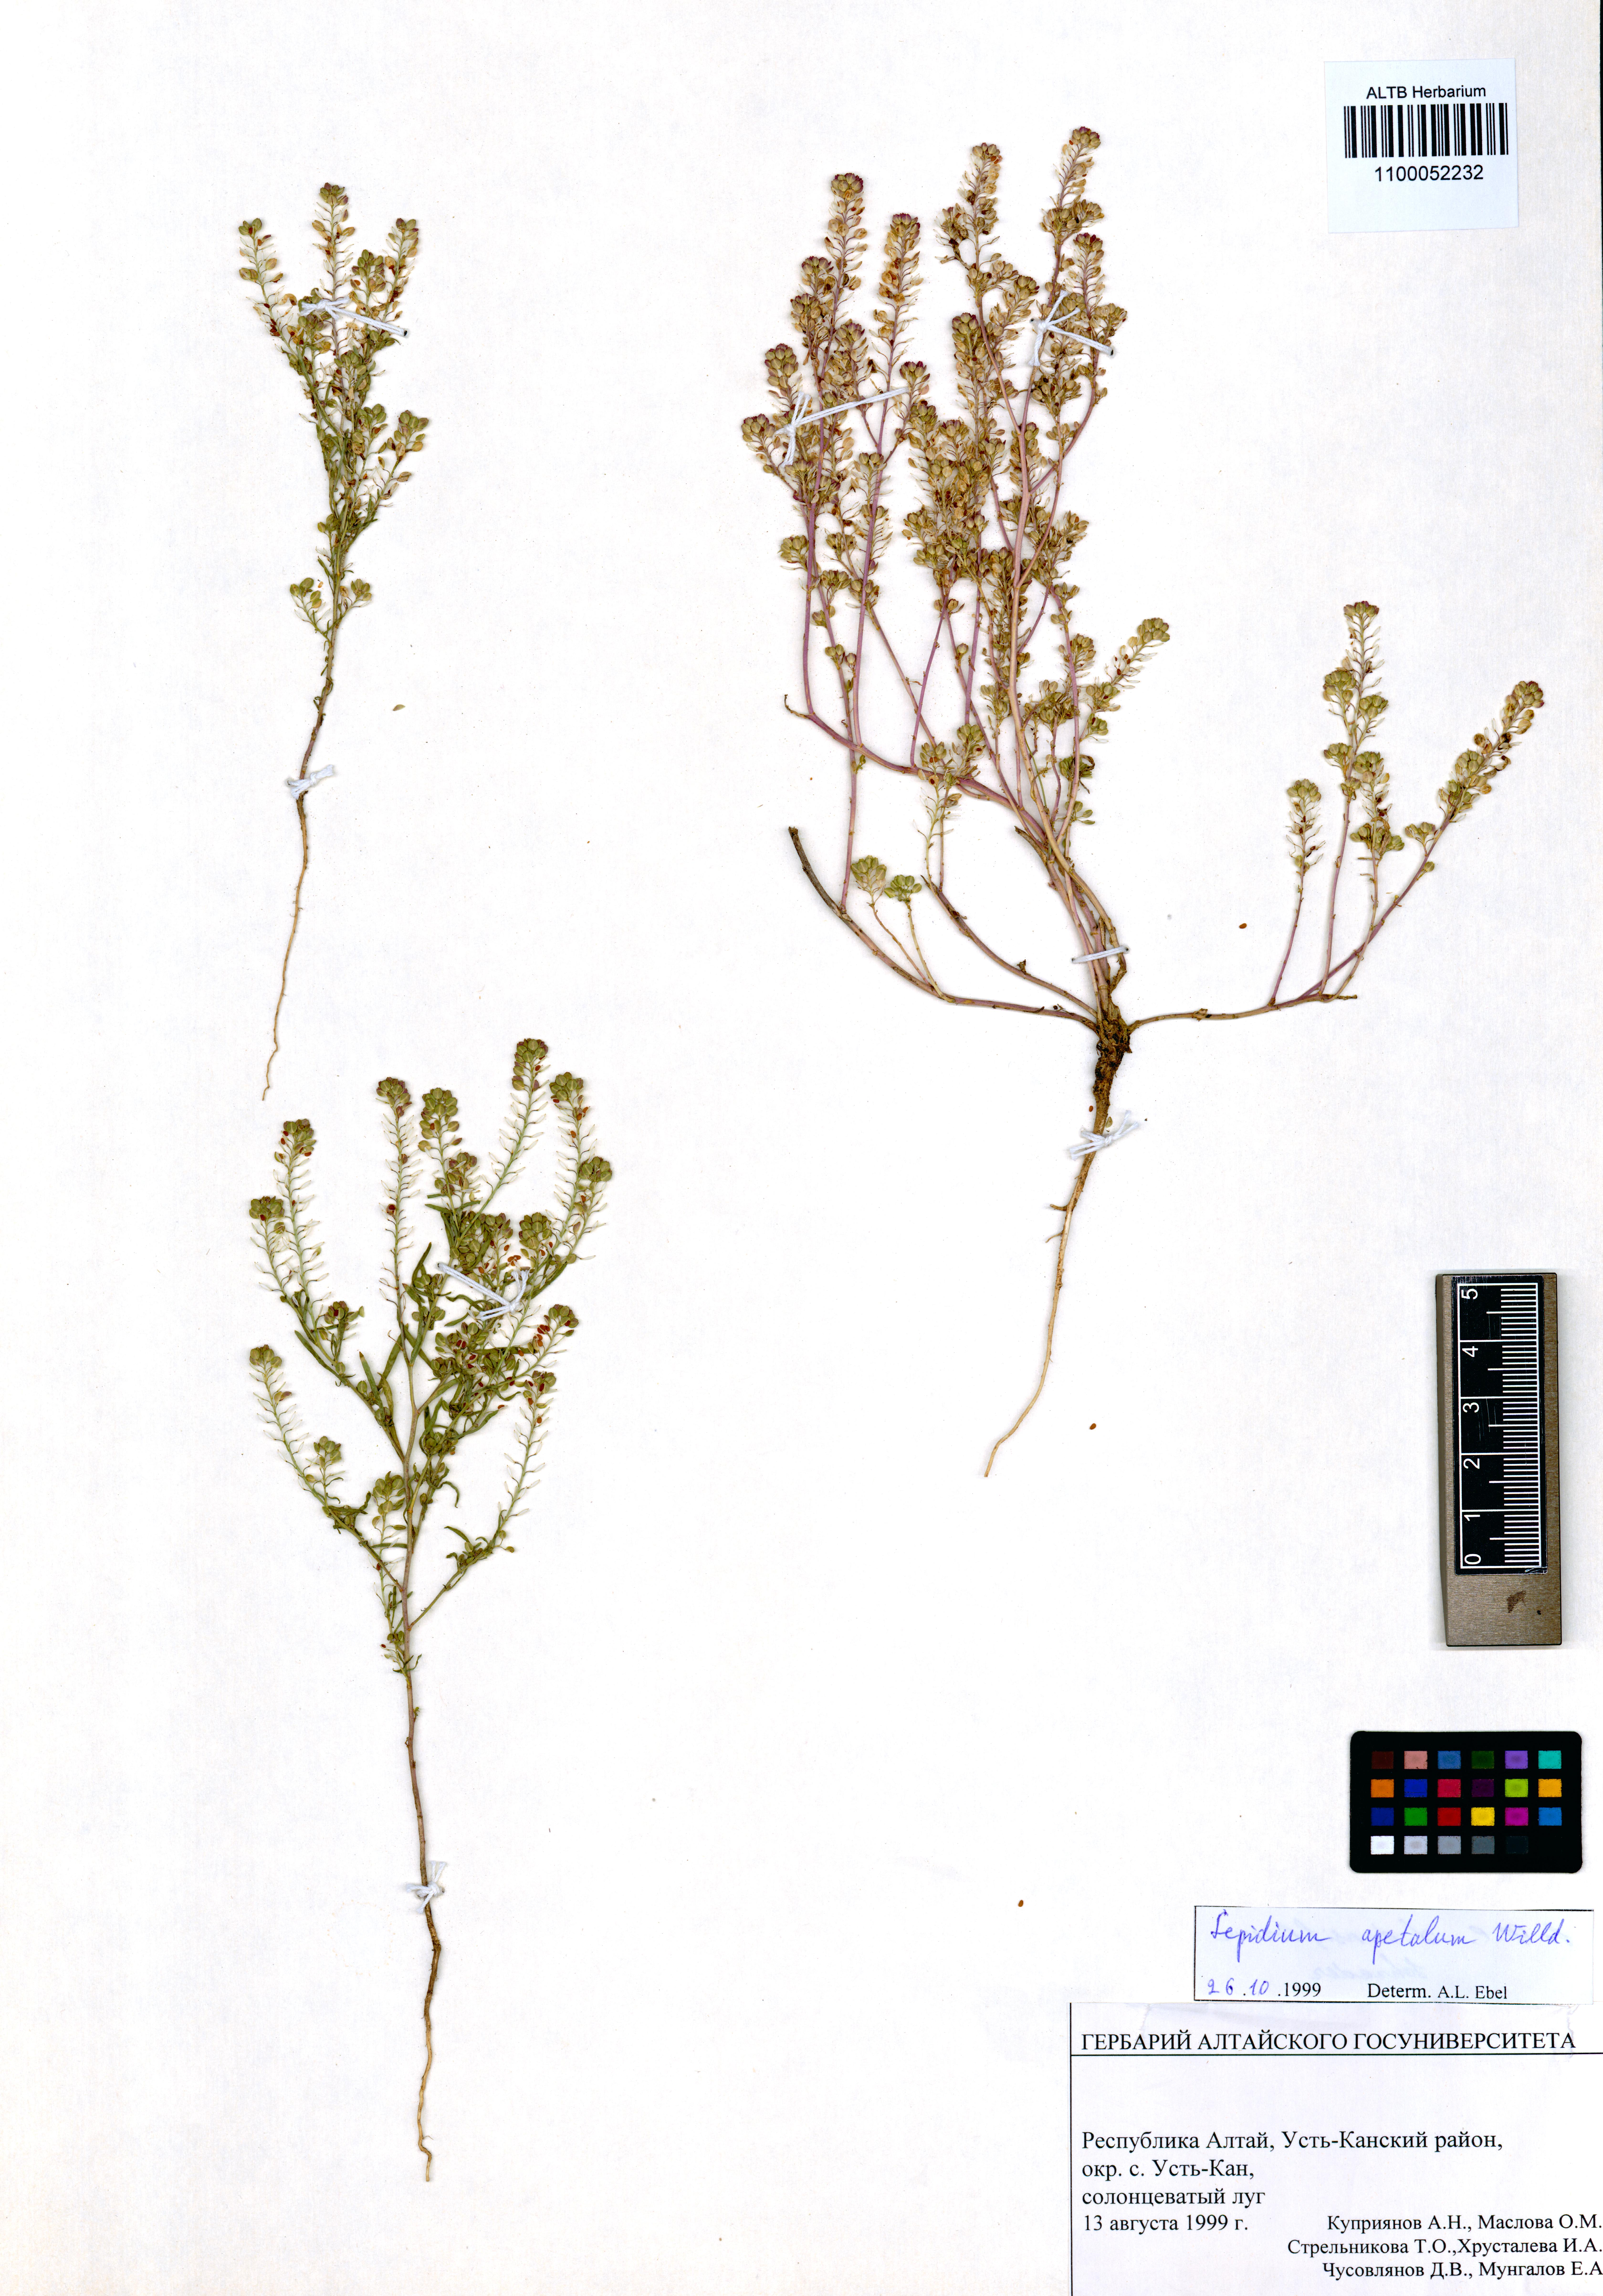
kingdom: Plantae
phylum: Tracheophyta
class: Magnoliopsida
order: Brassicales
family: Brassicaceae
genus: Lepidium
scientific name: Lepidium apetalum
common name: Pepperweed
